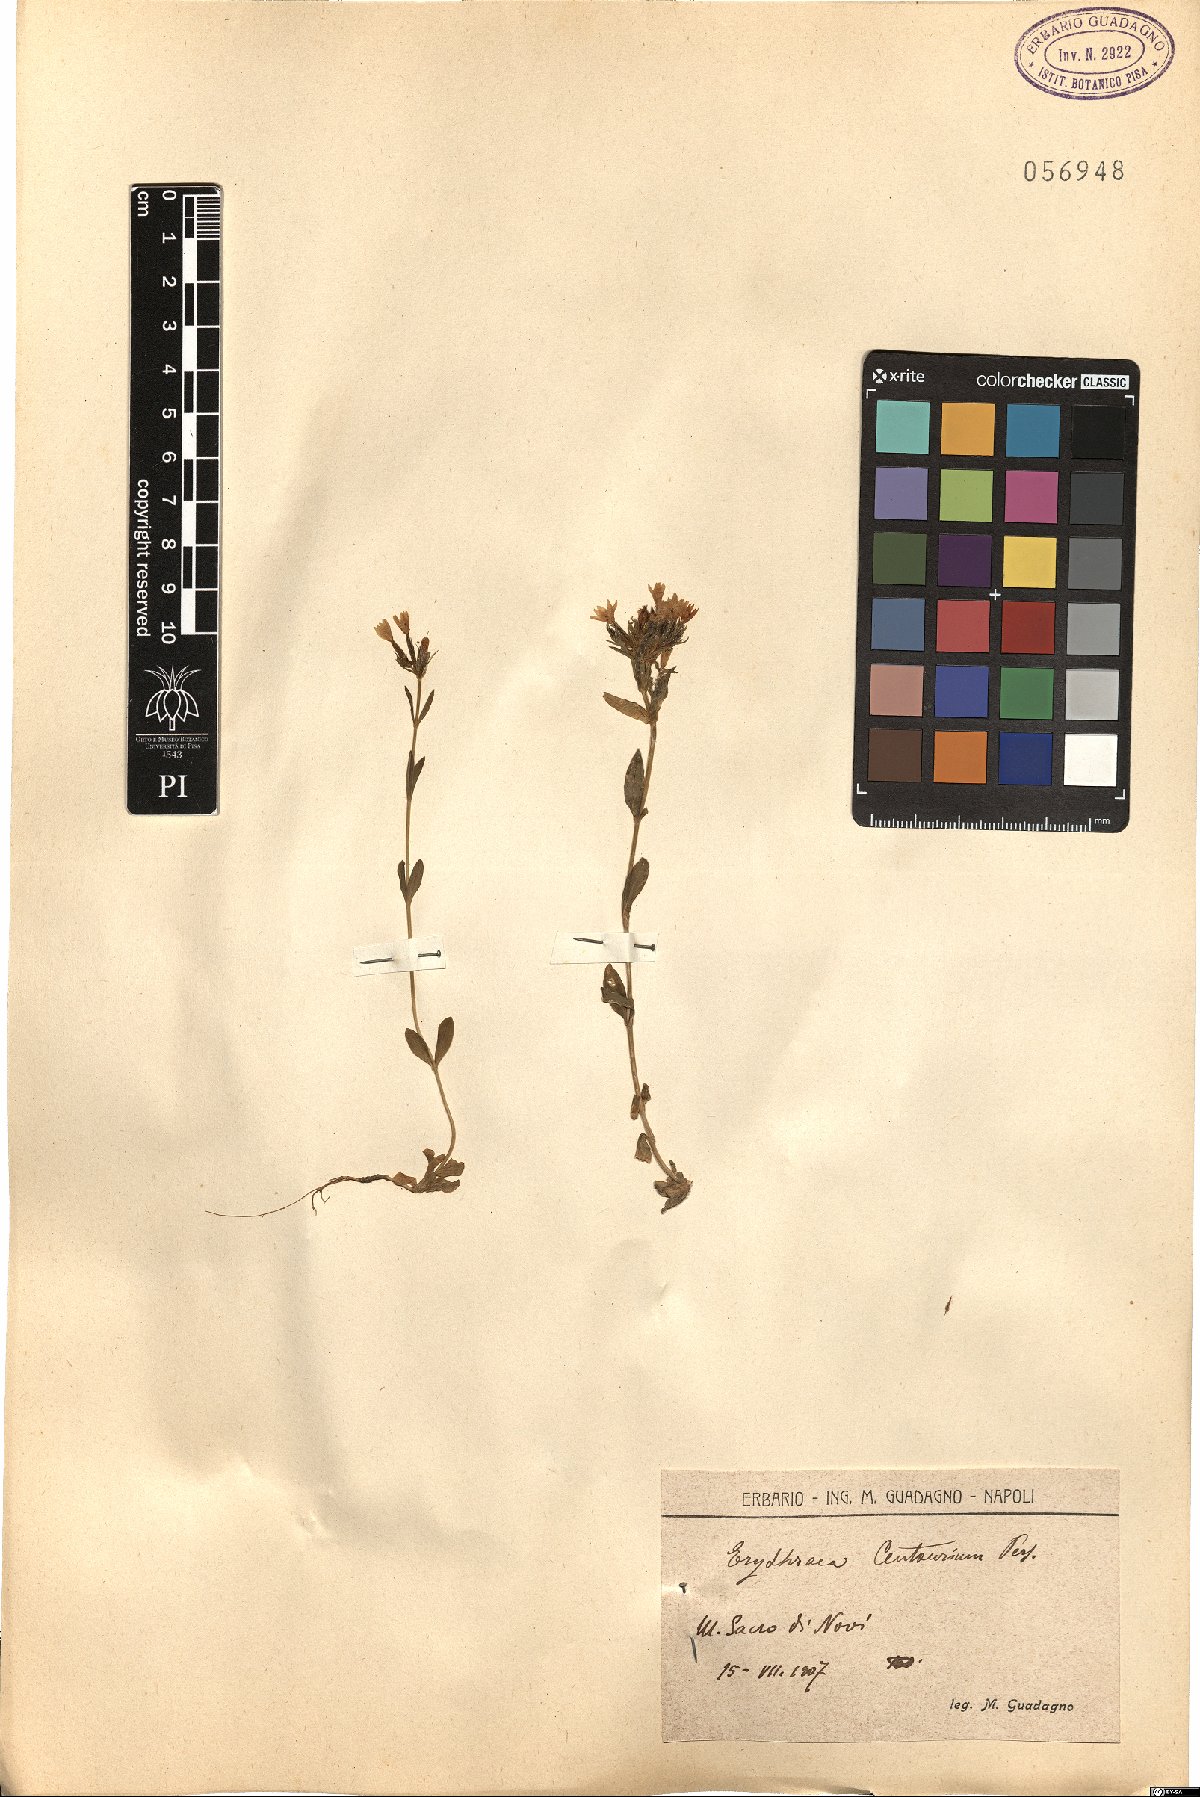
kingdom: Plantae
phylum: Tracheophyta
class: Magnoliopsida
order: Gentianales
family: Gentianaceae
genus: Centaurium
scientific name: Centaurium erythraea
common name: Common centaury
